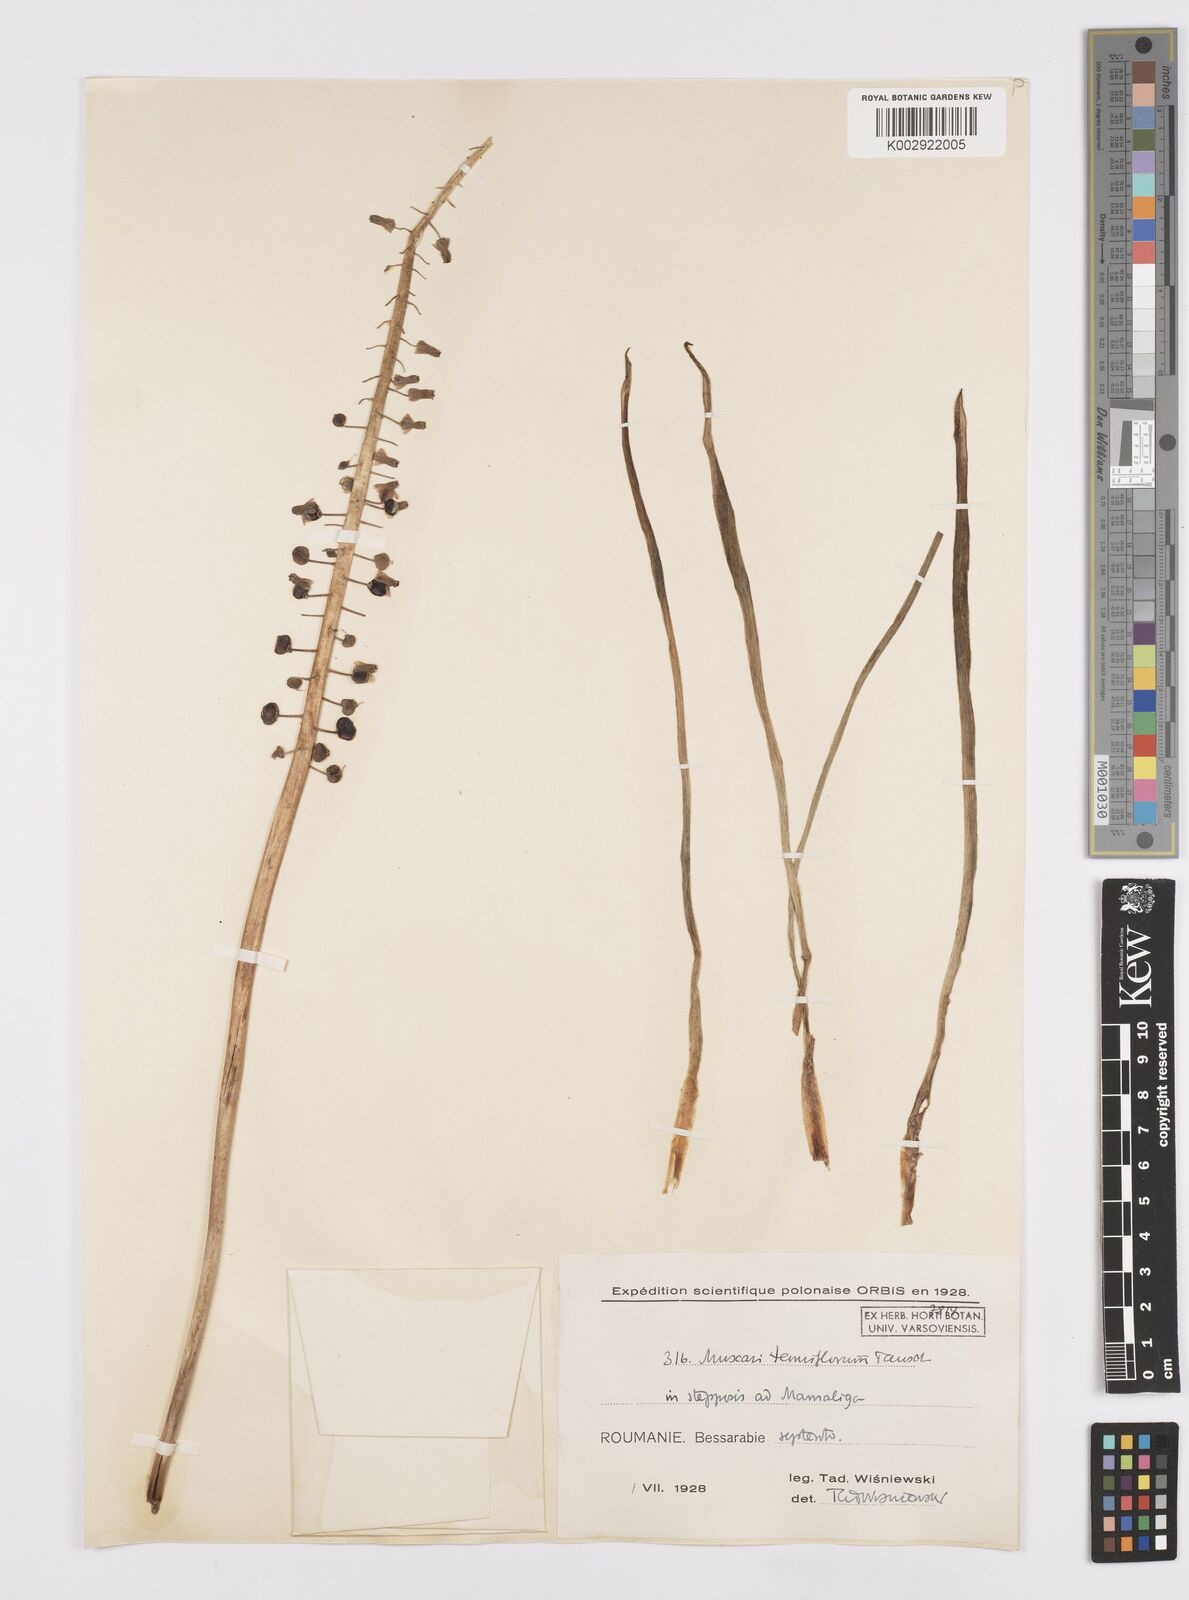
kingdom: Plantae
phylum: Tracheophyta
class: Liliopsida
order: Asparagales
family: Asparagaceae
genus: Muscari
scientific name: Muscari tenuiflorum
